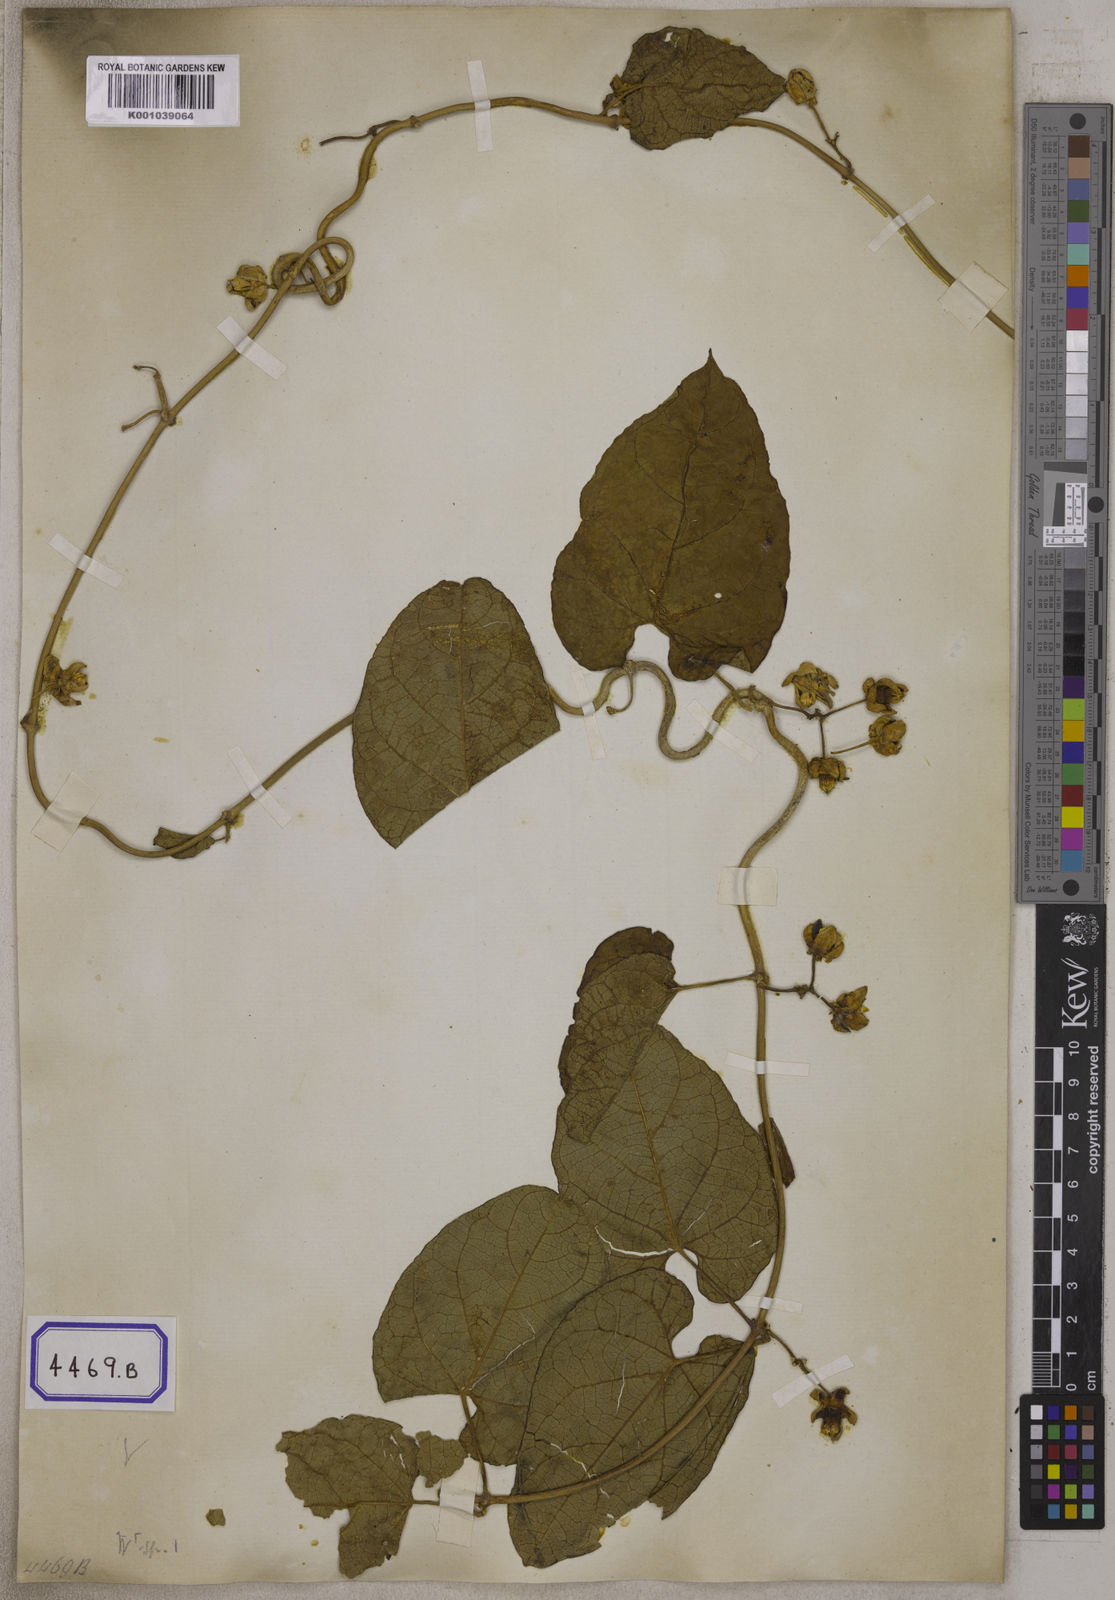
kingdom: Plantae
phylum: Tracheophyta
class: Magnoliopsida
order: Gentianales
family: Apocynaceae
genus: Cynanchum
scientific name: Cynanchum annularium
